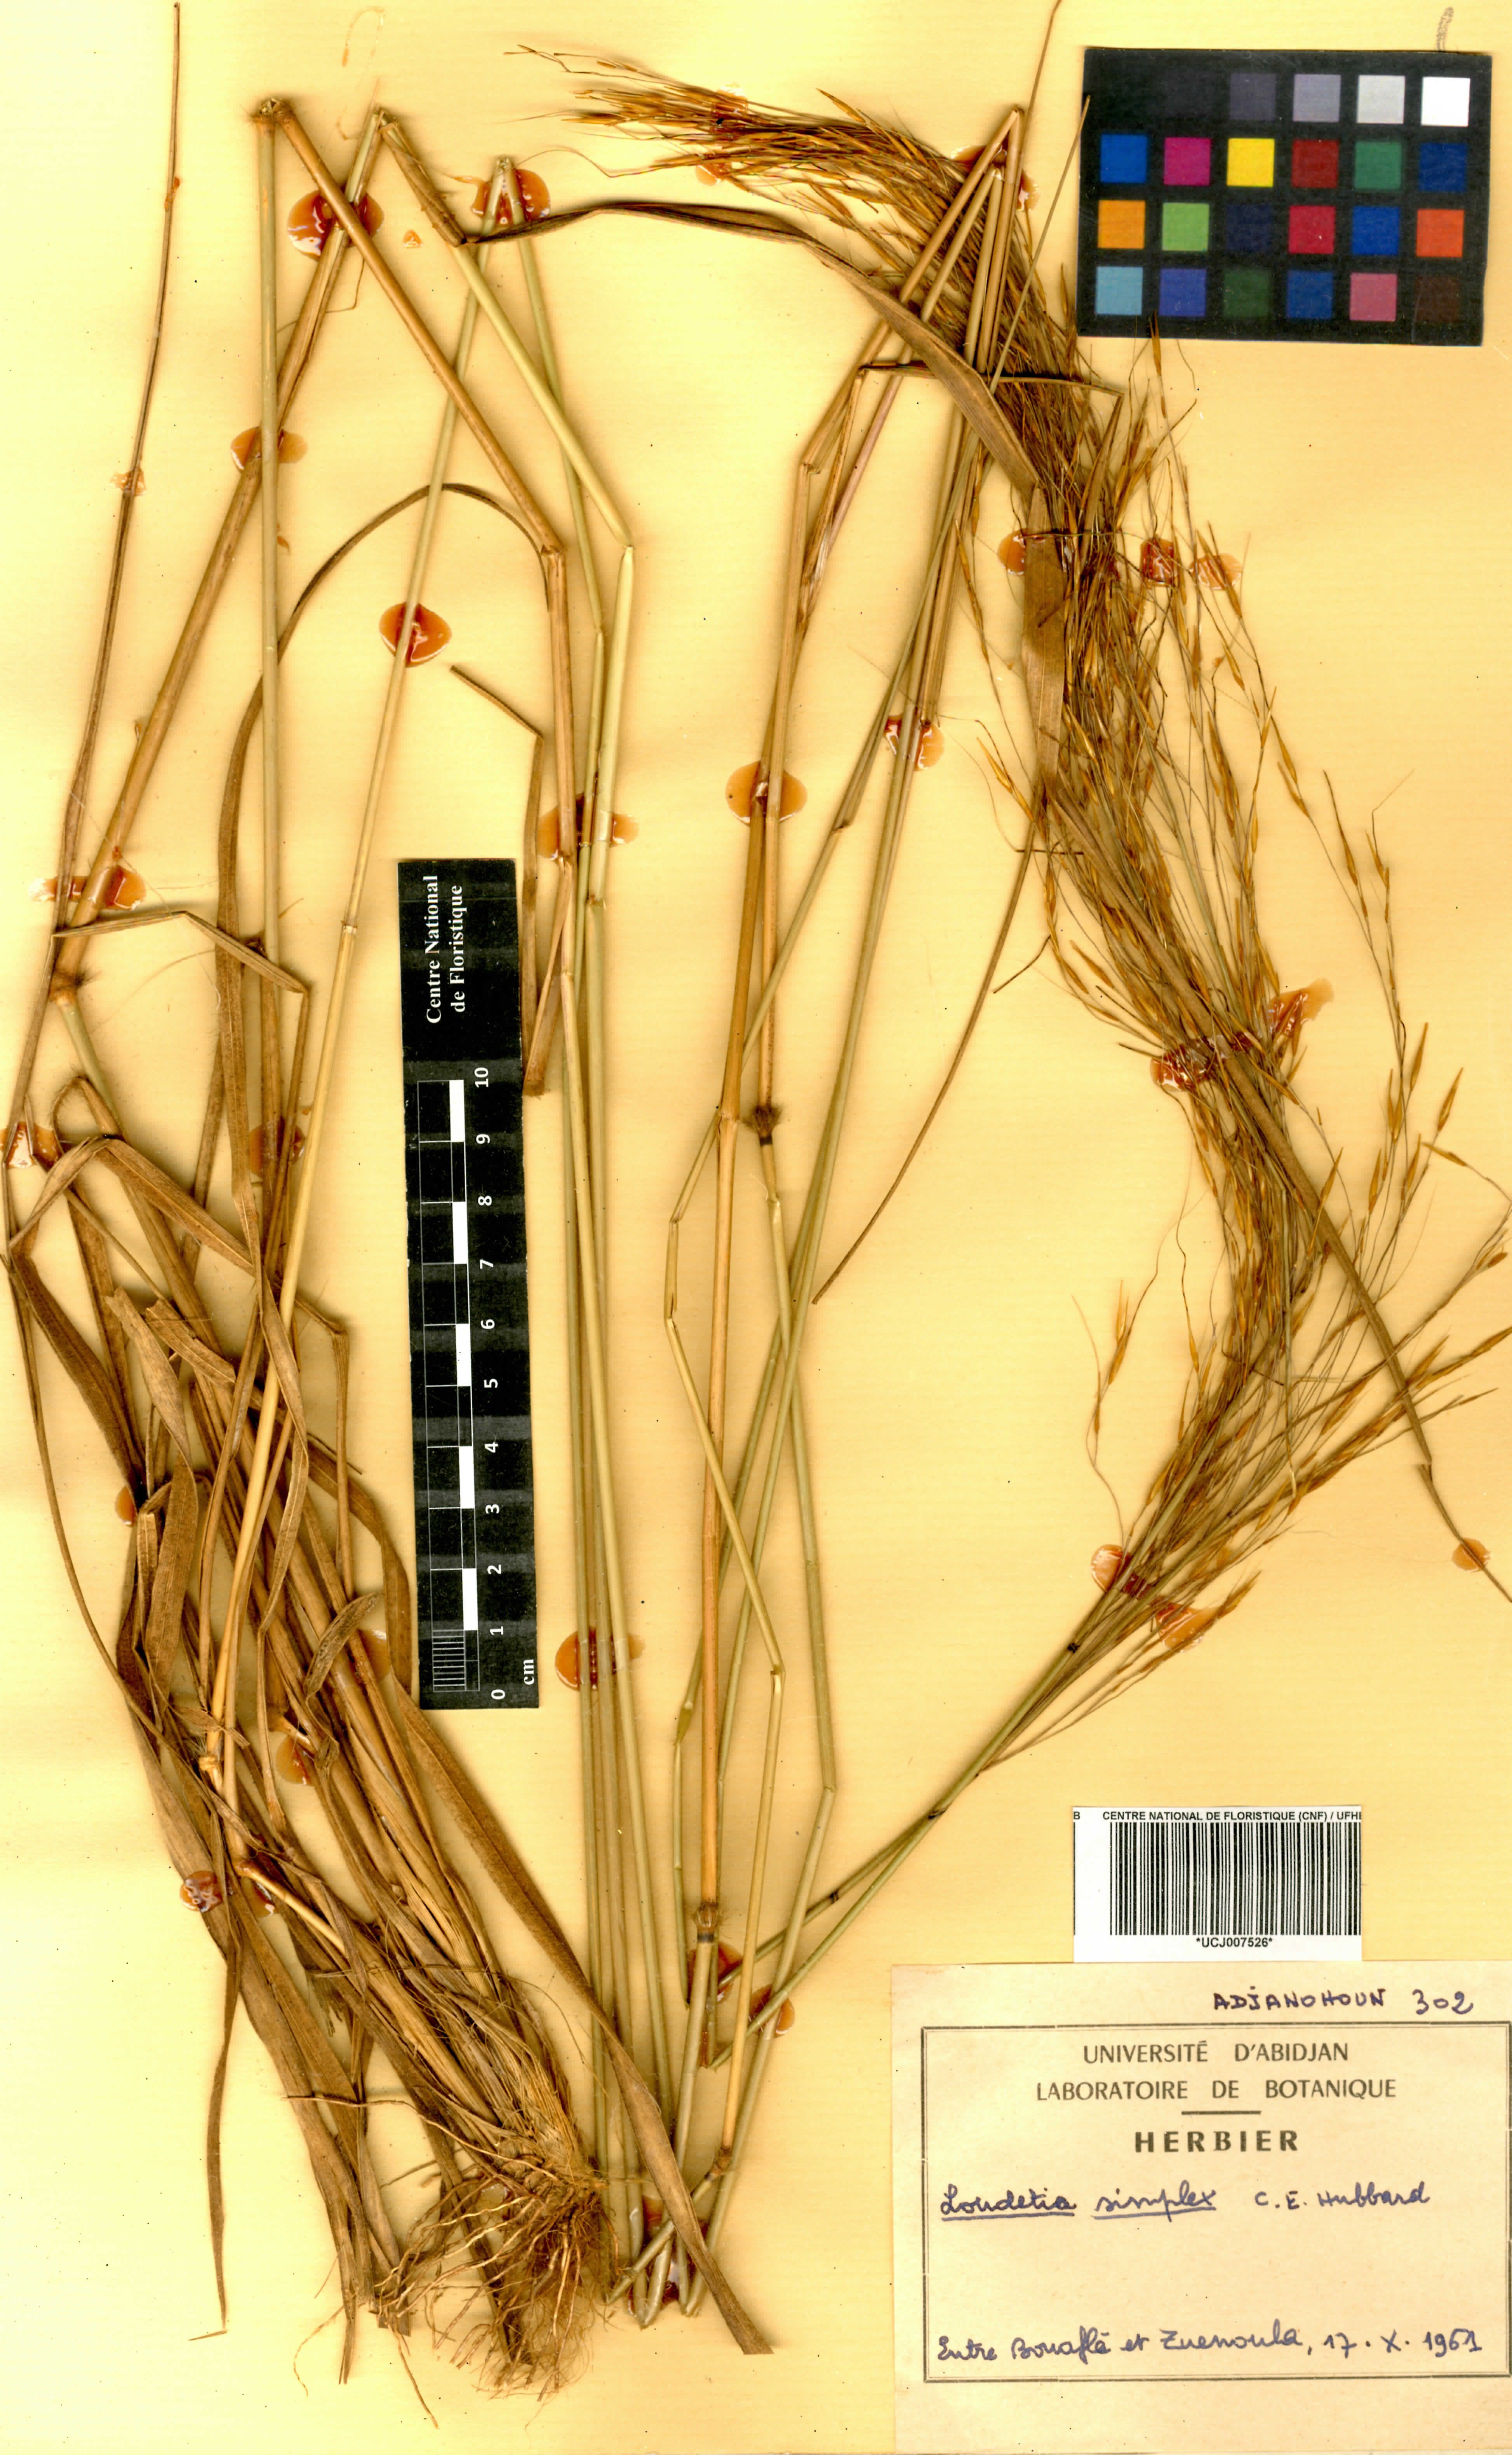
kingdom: Plantae
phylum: Tracheophyta
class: Liliopsida
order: Poales
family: Poaceae
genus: Loudetia
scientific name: Loudetia simplex
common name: Common russet grass
